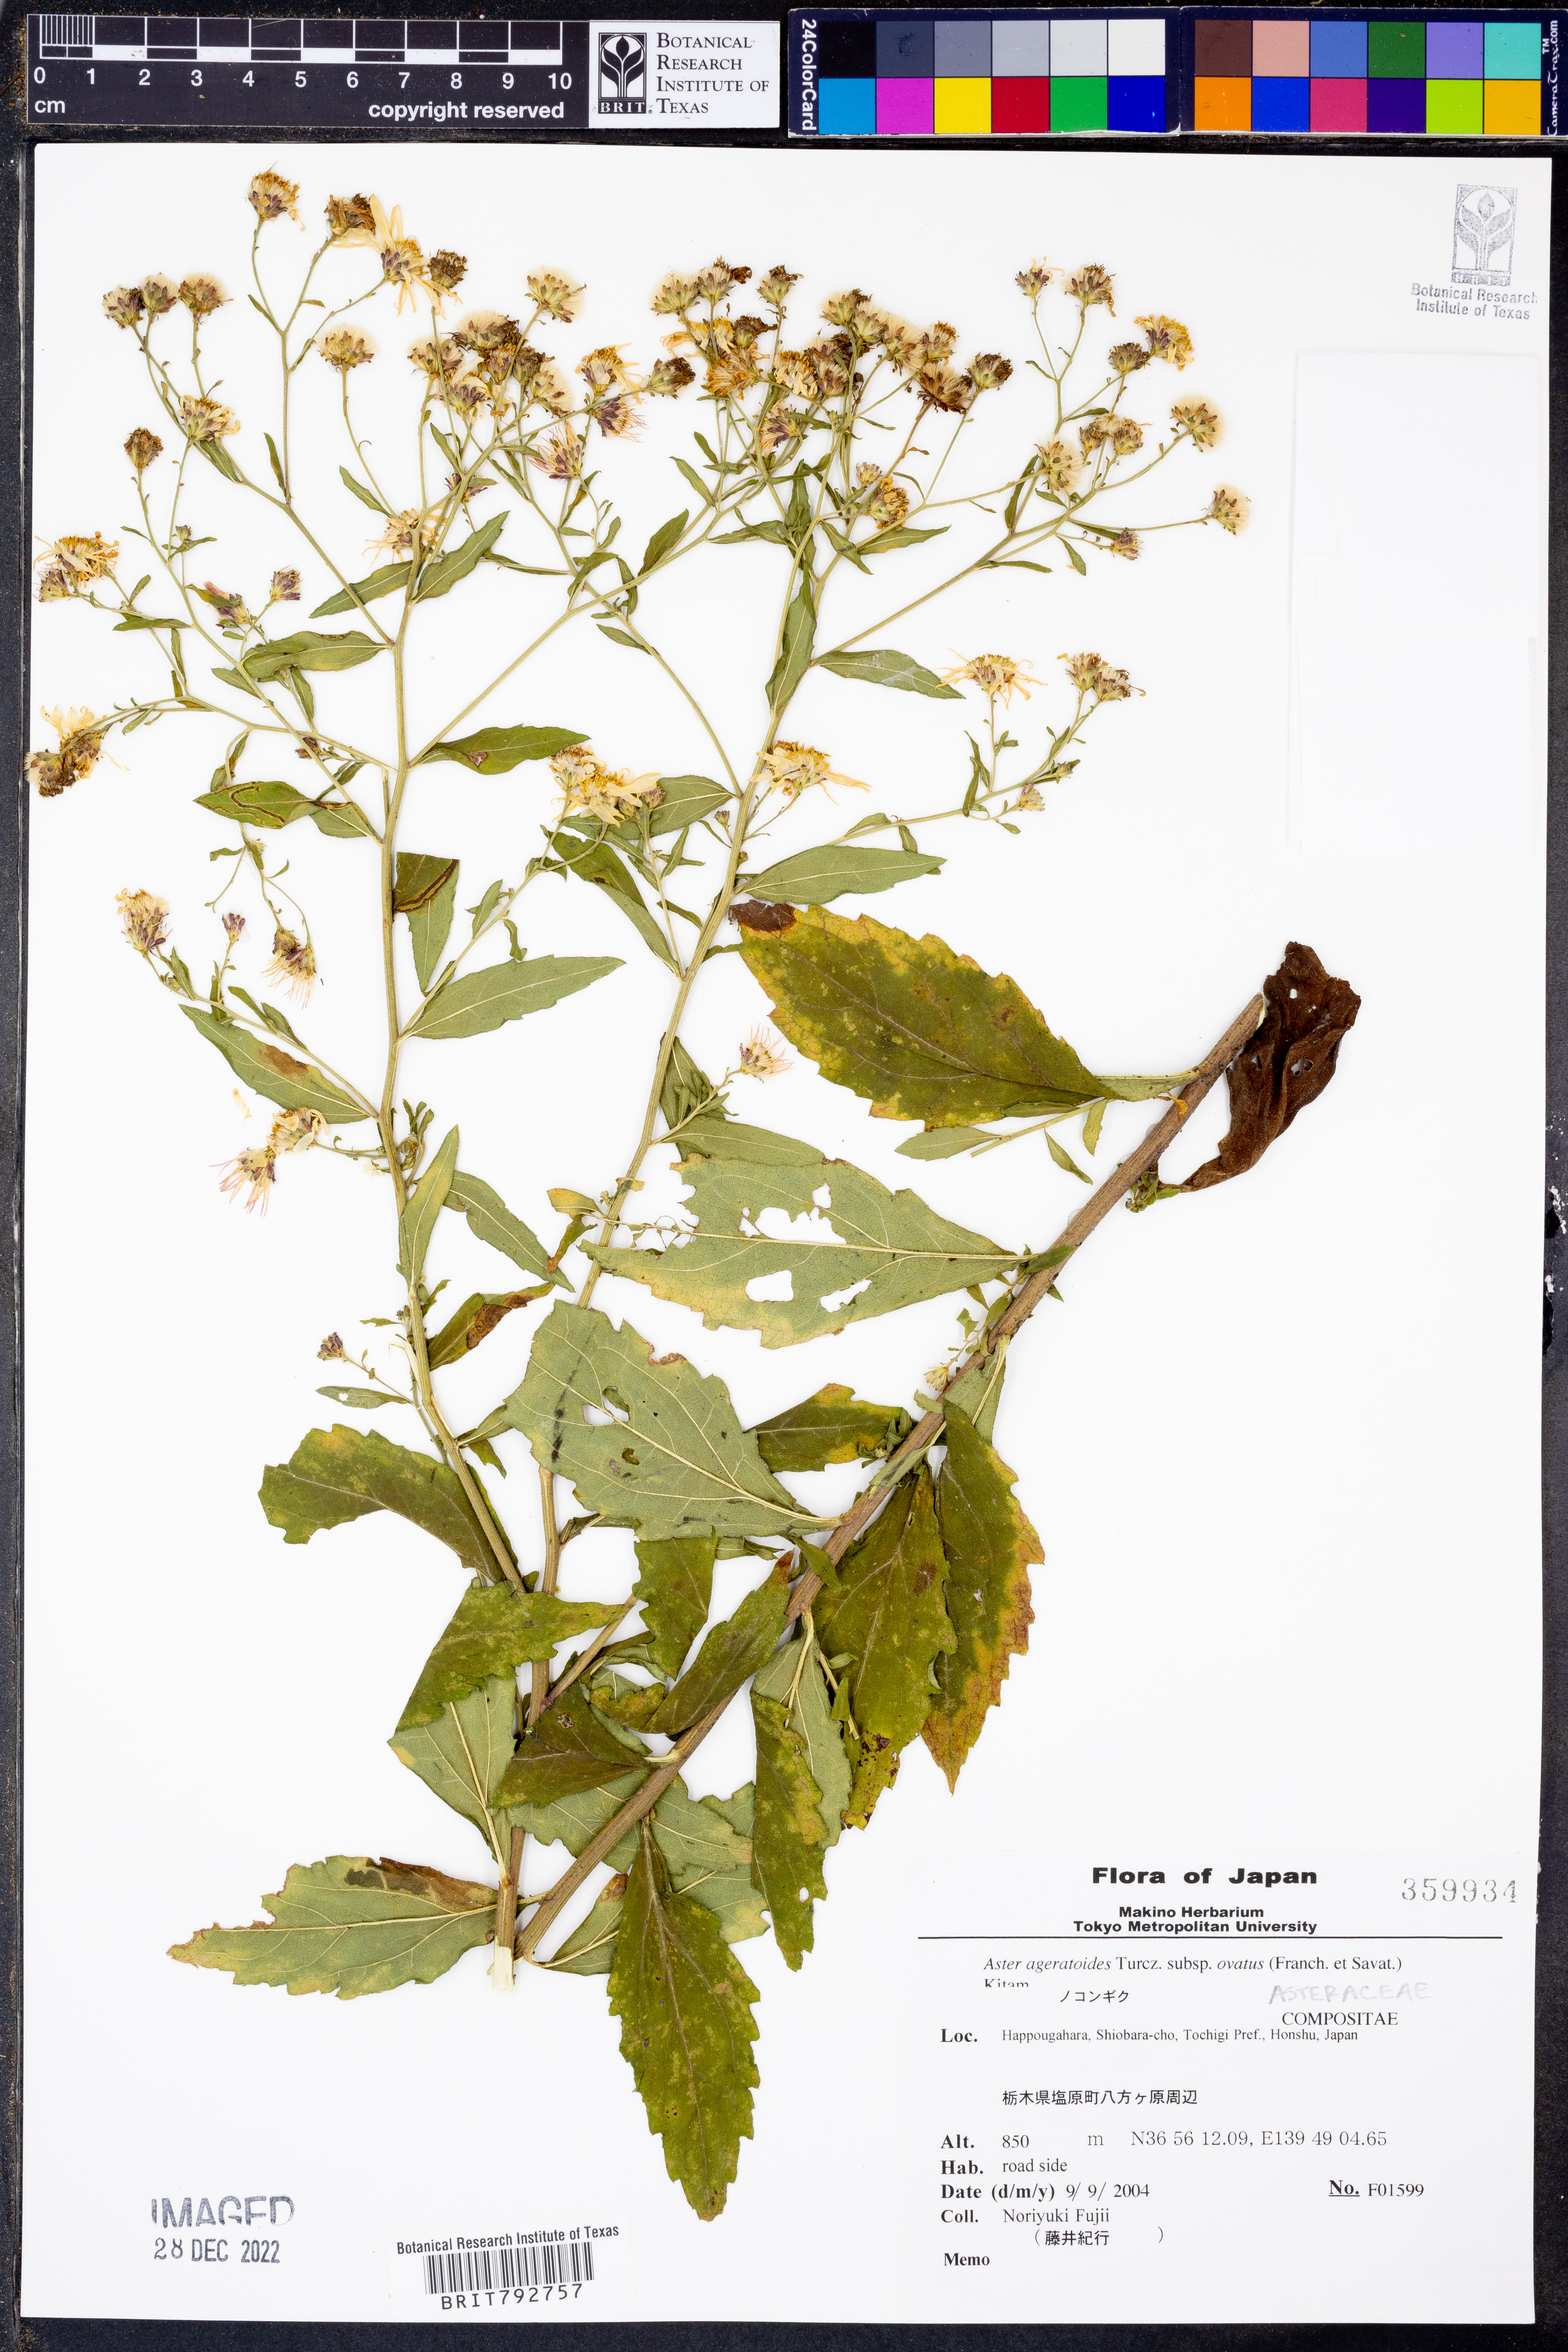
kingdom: Plantae
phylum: Tracheophyta
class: Magnoliopsida
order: Asterales
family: Asteraceae
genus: Aster
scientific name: Aster microcephalus
